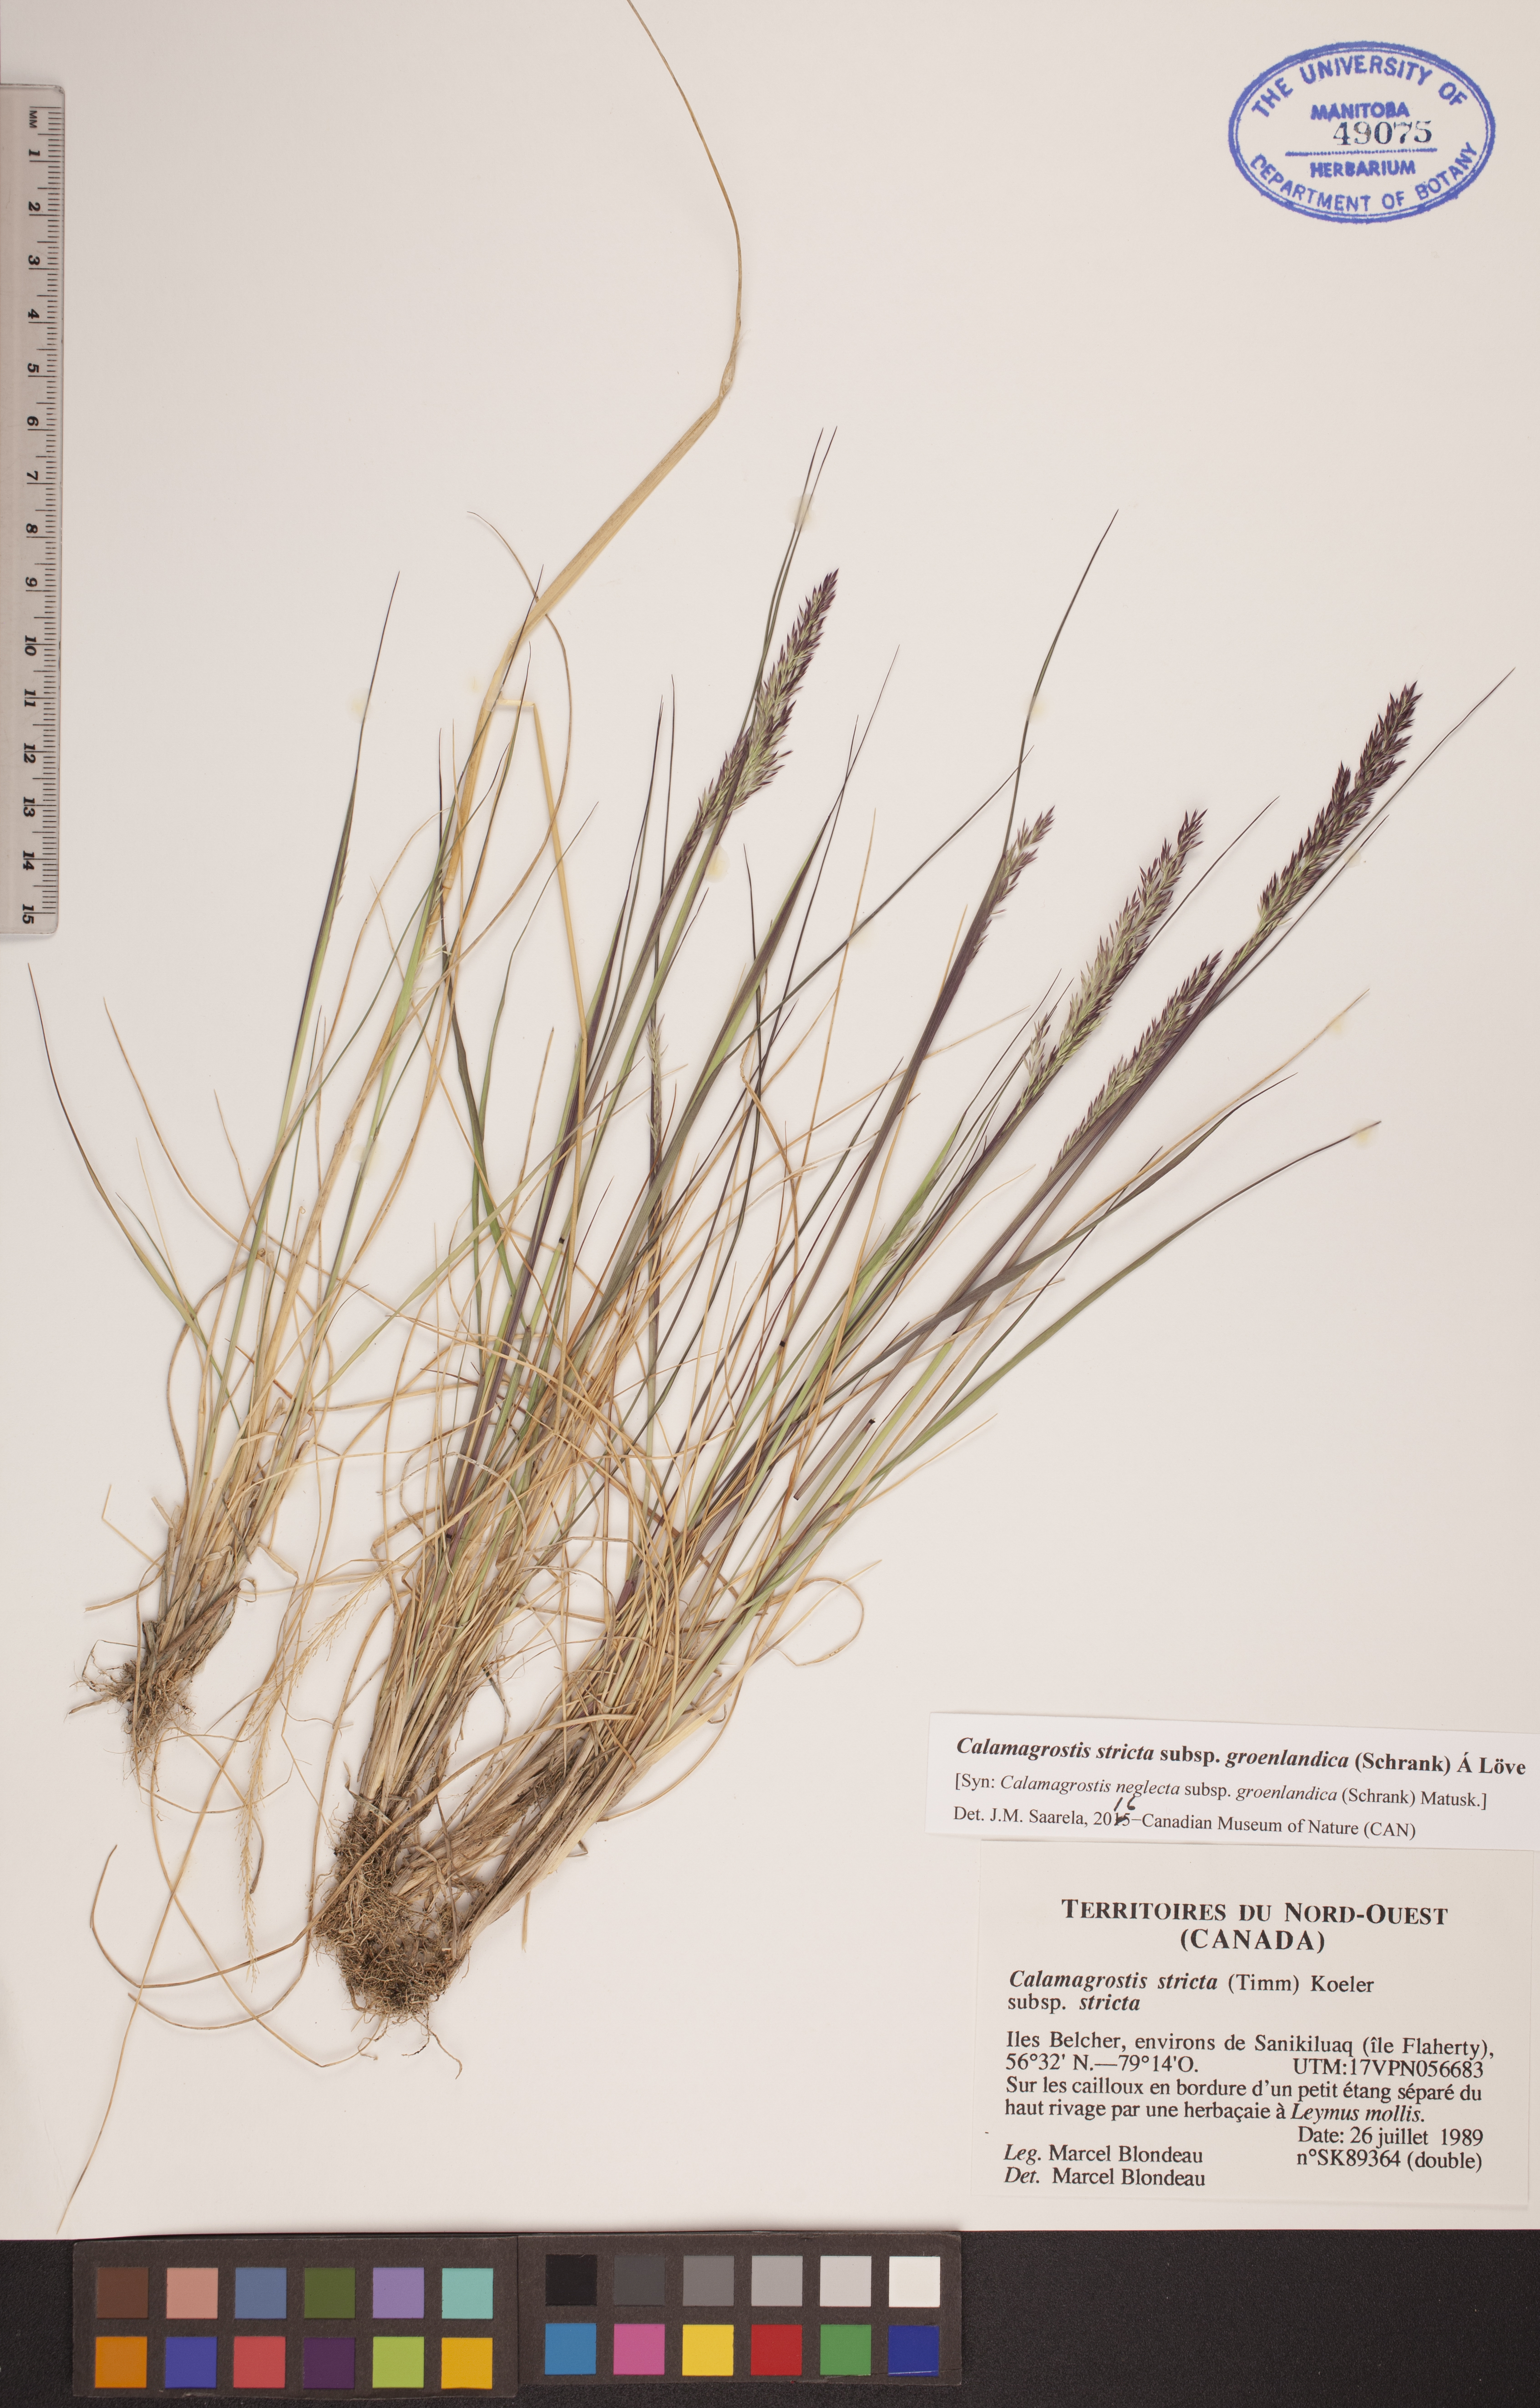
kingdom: Plantae
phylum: Tracheophyta
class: Liliopsida
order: Poales
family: Poaceae
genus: Calamagrostis
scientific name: Calamagrostis stricta
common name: Narrow small-reed
